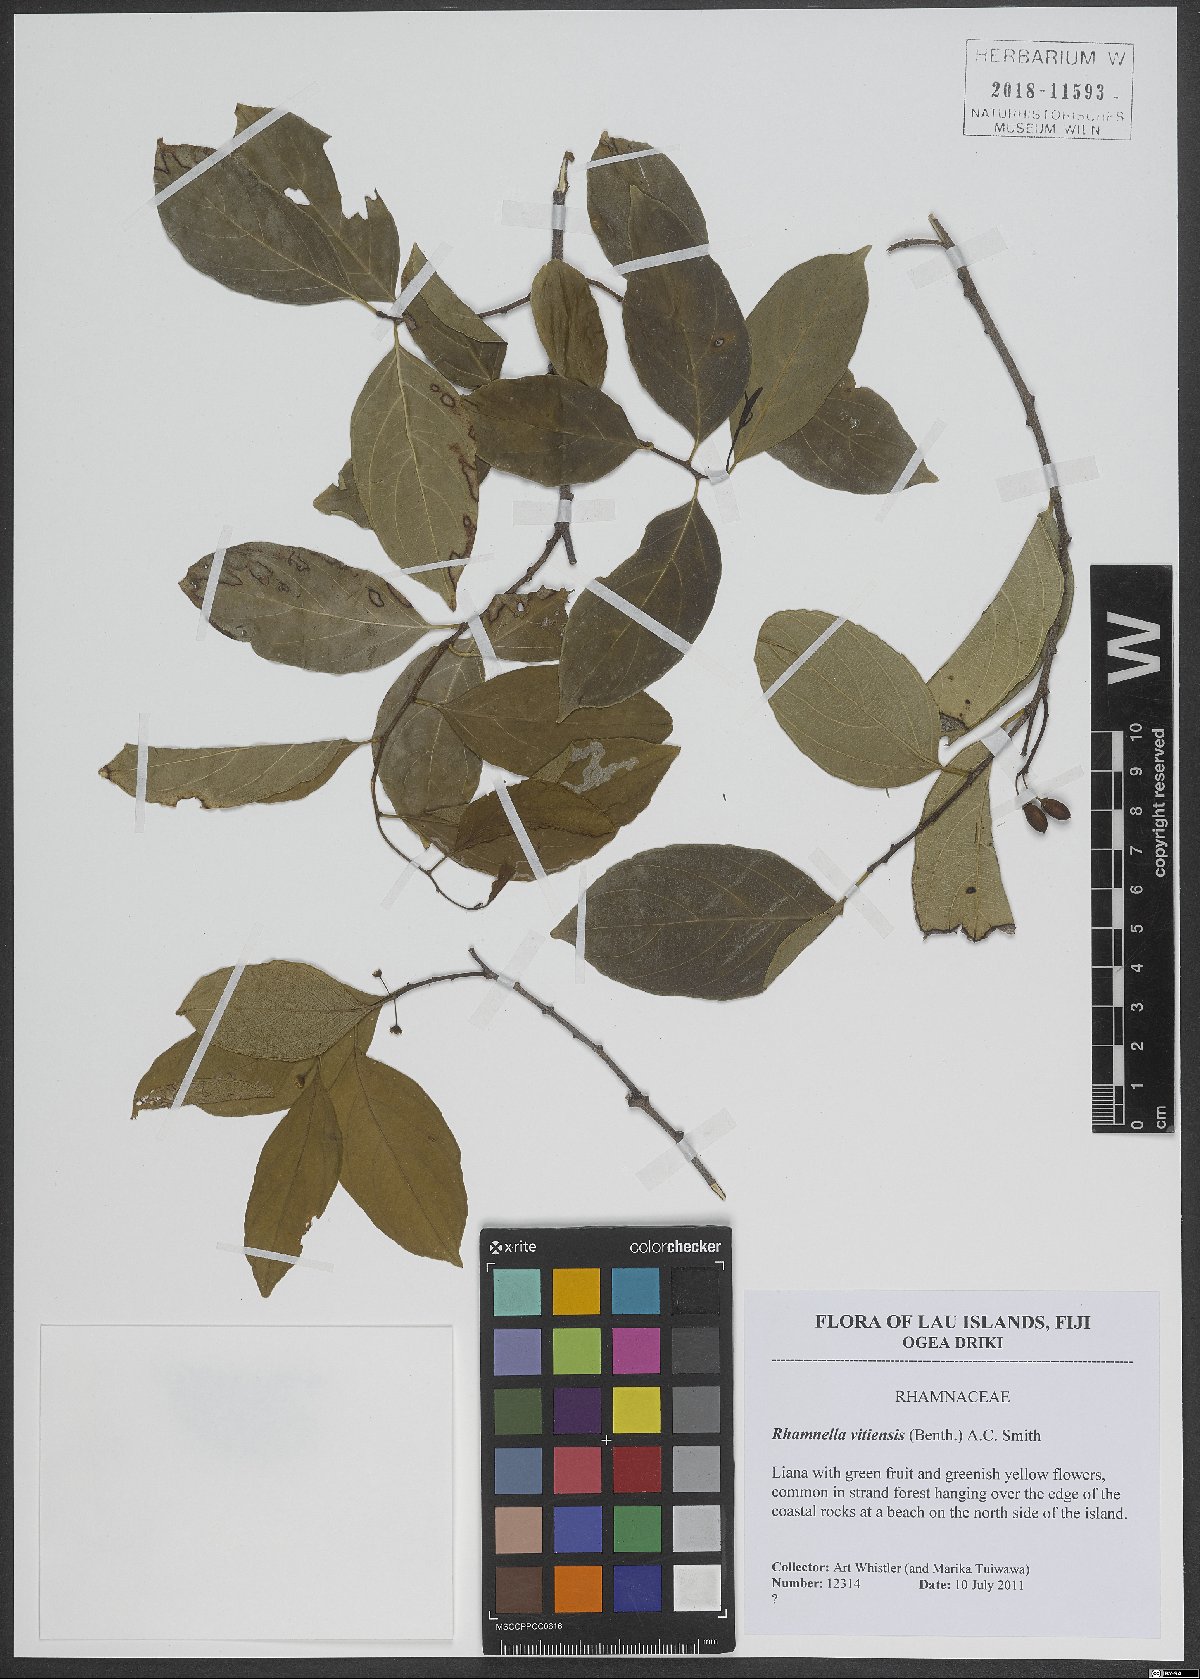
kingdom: Plantae
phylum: Tracheophyta
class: Magnoliopsida
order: Rosales
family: Rhamnaceae
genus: Dallachya
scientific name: Dallachya vitiensis
